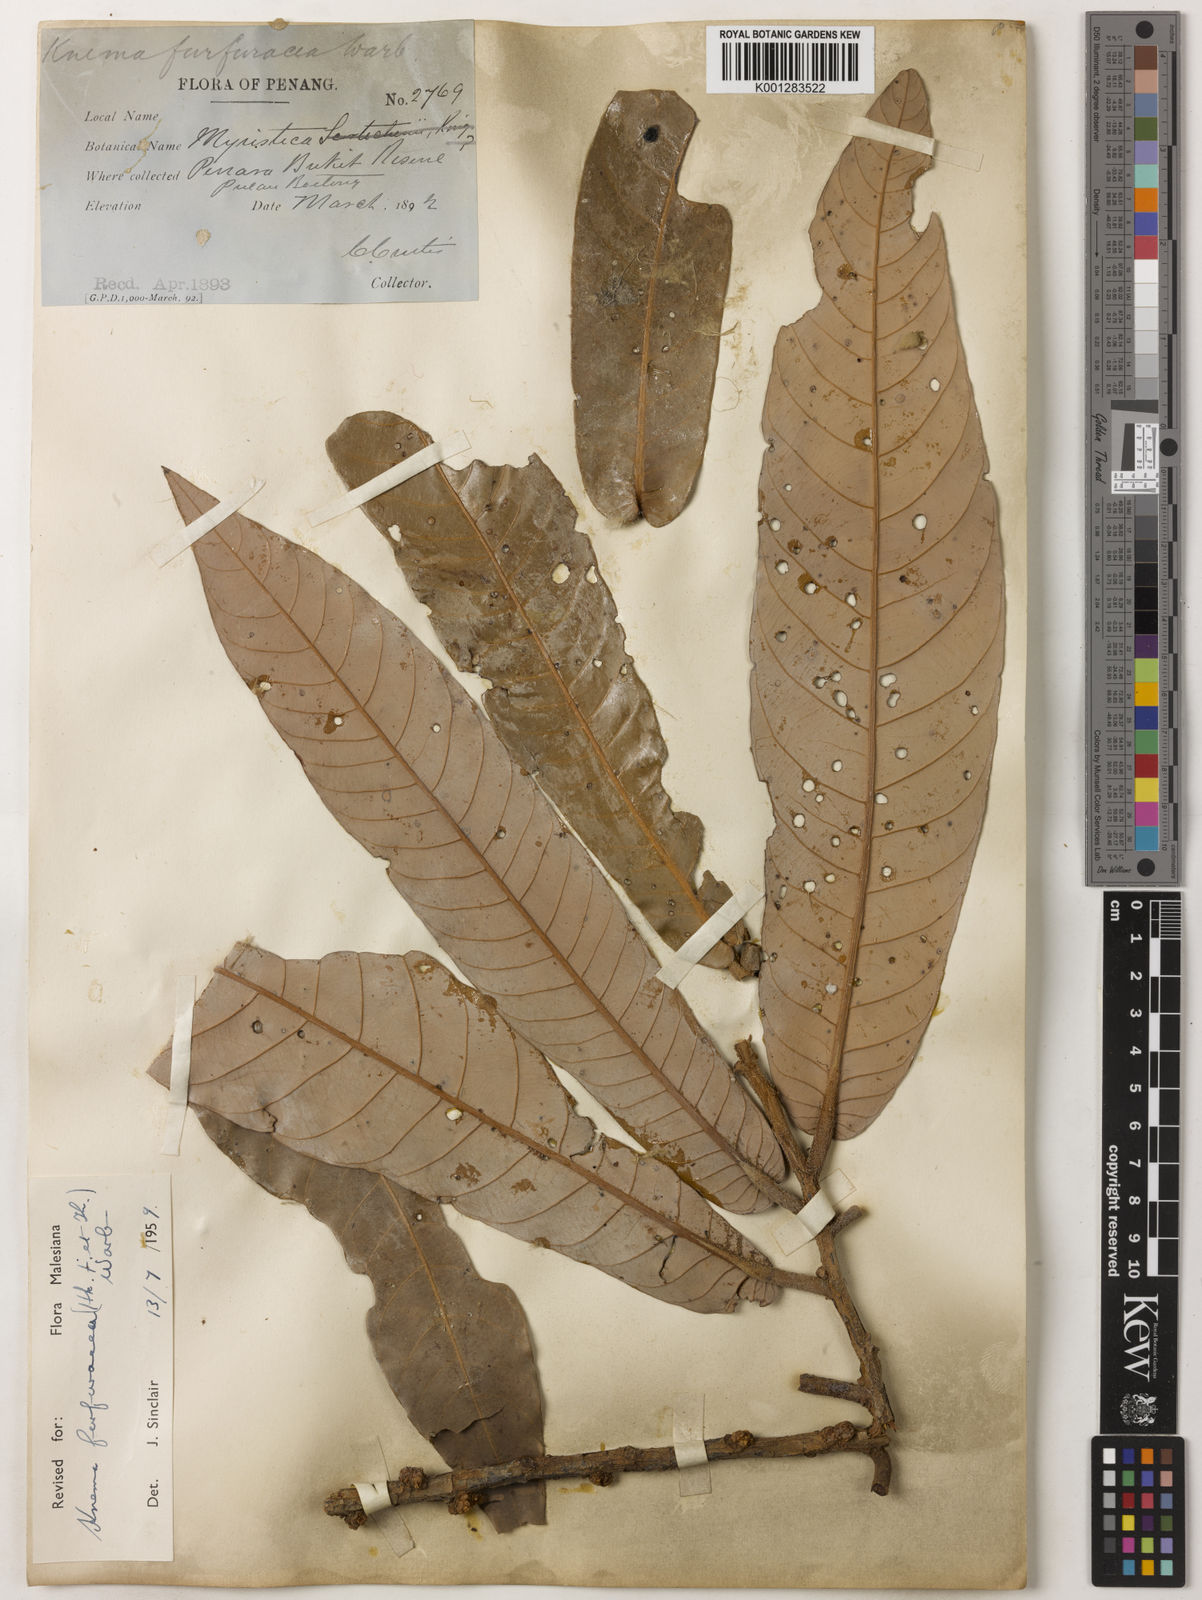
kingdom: Plantae
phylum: Tracheophyta
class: Magnoliopsida
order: Magnoliales
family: Myristicaceae
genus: Knema
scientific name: Knema furfuracea
